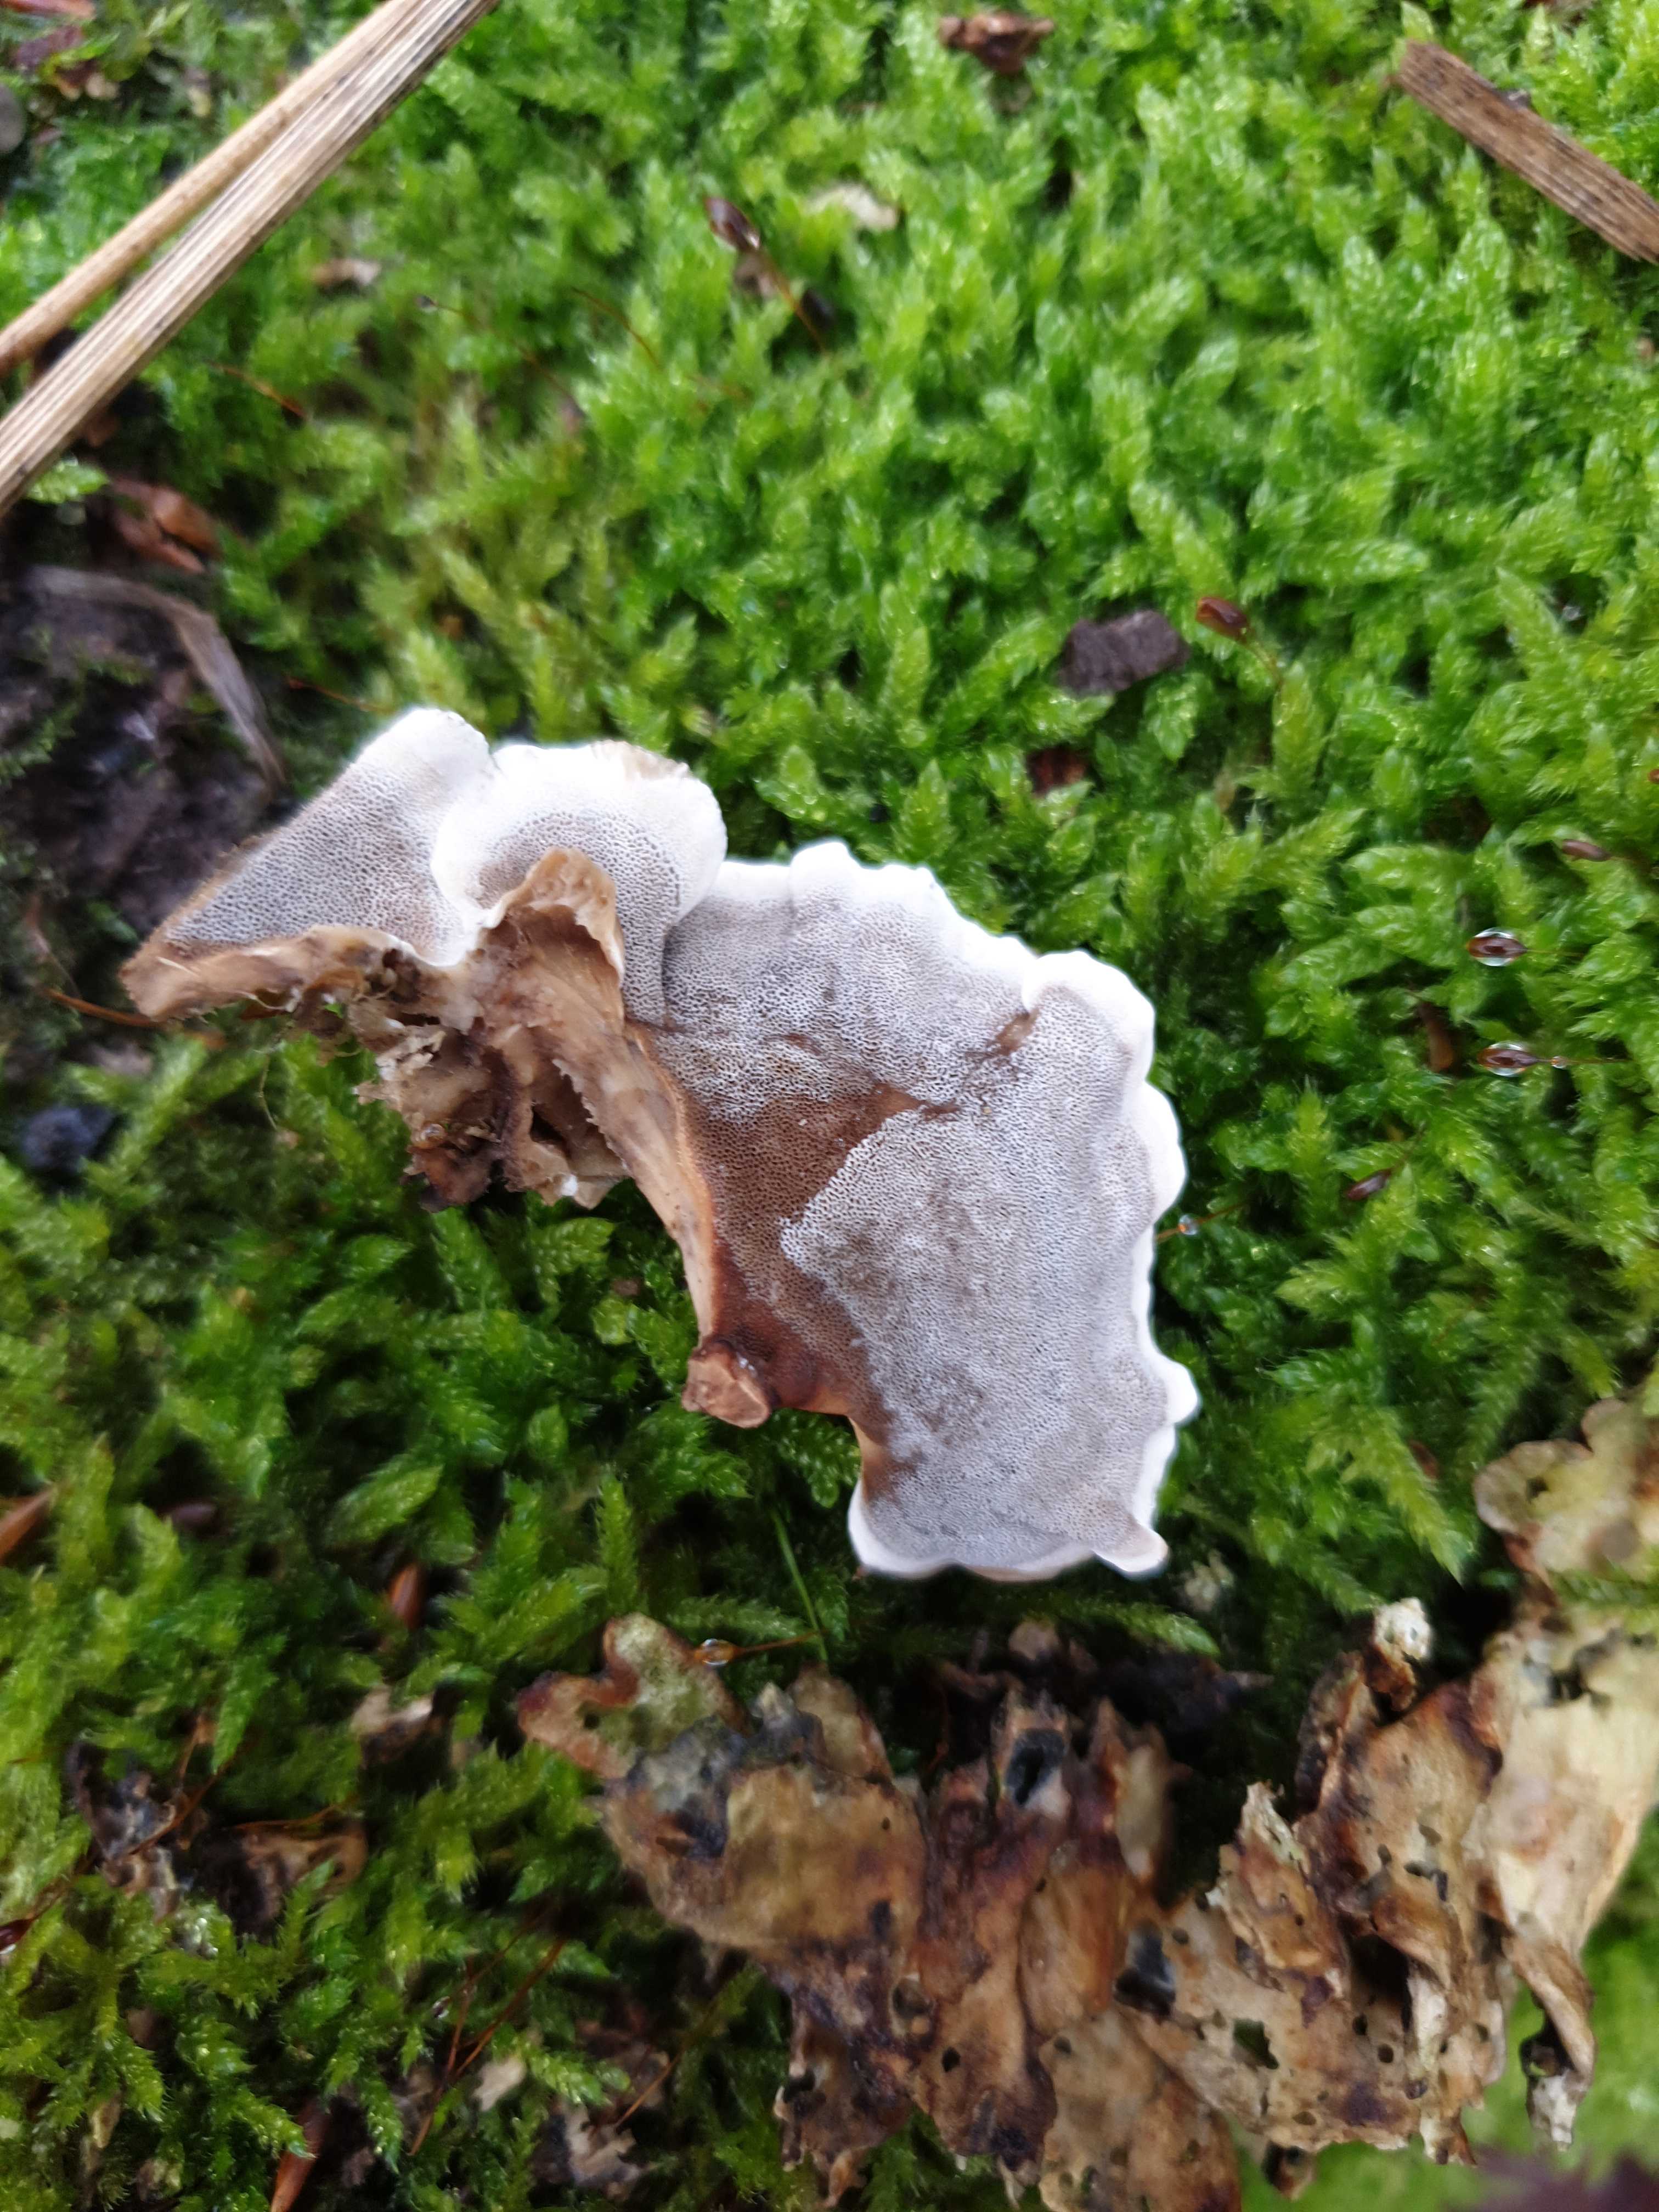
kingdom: Fungi
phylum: Basidiomycota
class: Agaricomycetes
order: Polyporales
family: Phanerochaetaceae
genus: Bjerkandera
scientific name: Bjerkandera adusta
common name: sveden sodporesvamp
